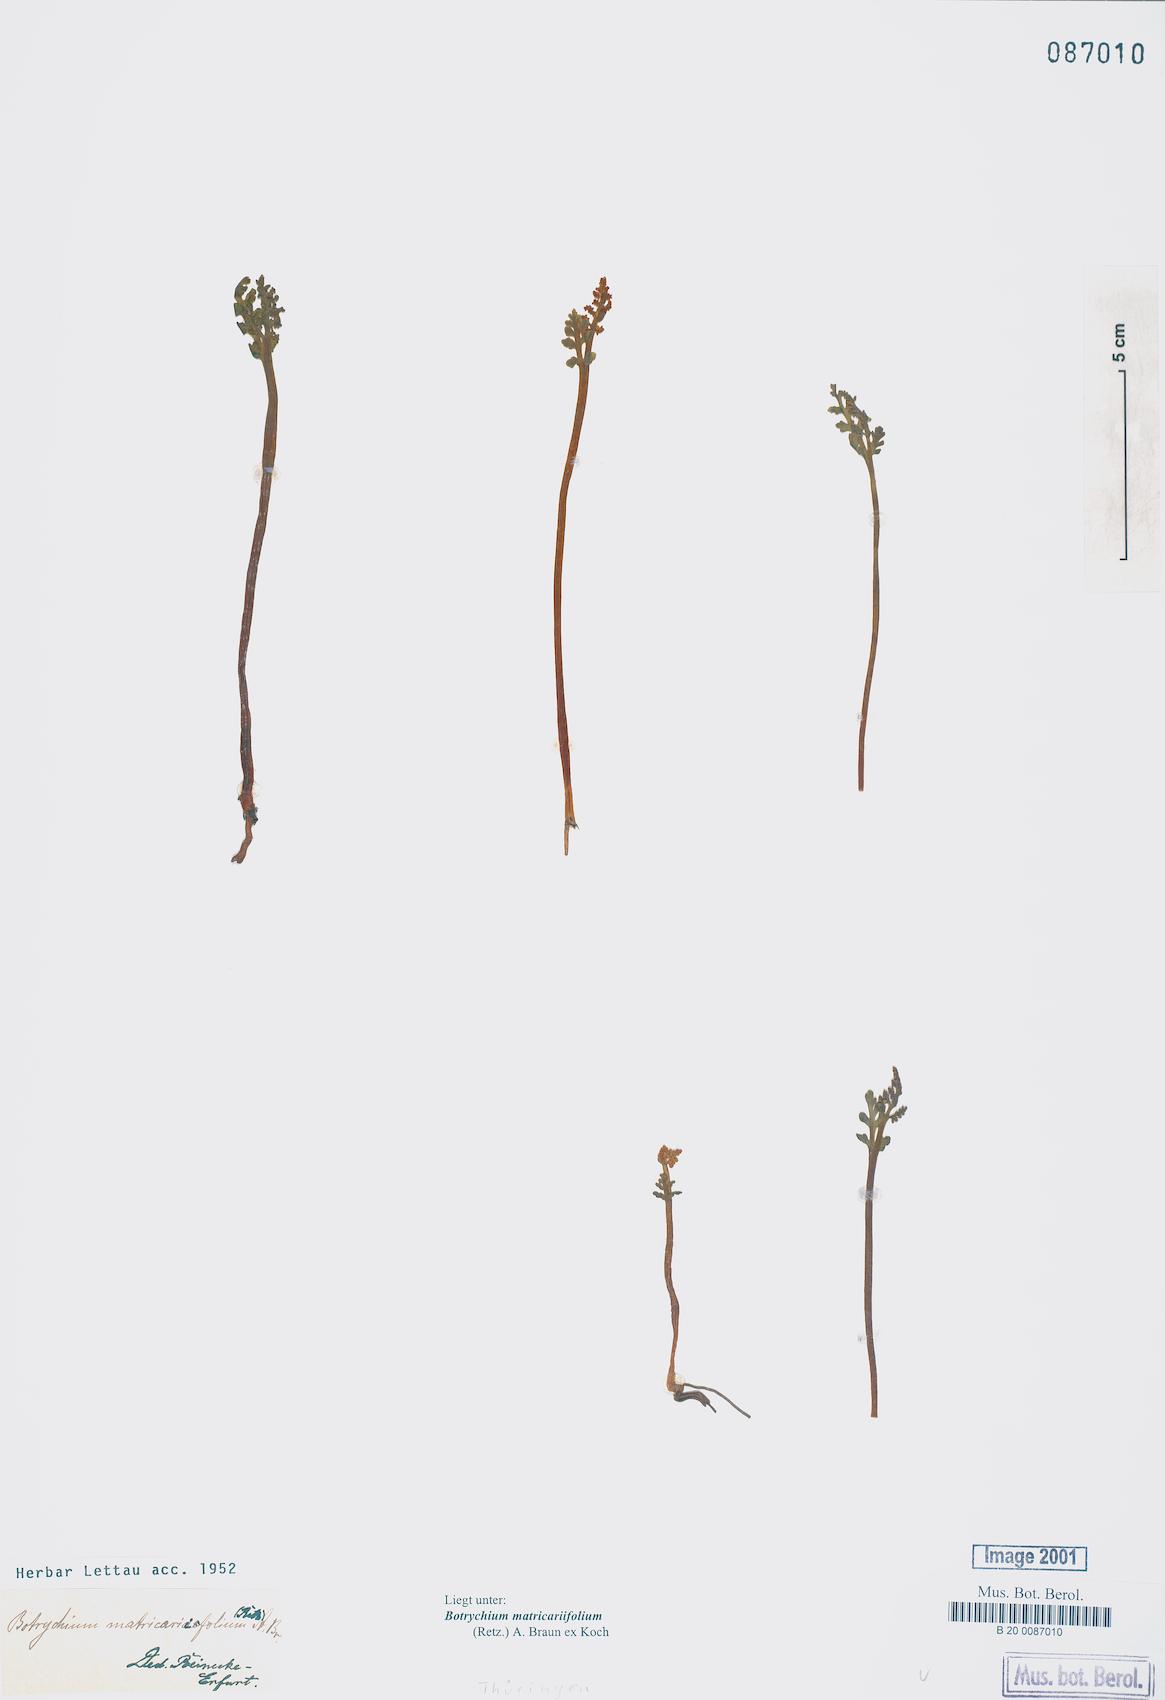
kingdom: Plantae
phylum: Tracheophyta
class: Polypodiopsida
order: Ophioglossales
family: Ophioglossaceae
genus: Botrychium
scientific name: Botrychium matricariifolium
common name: Branched moonwort
